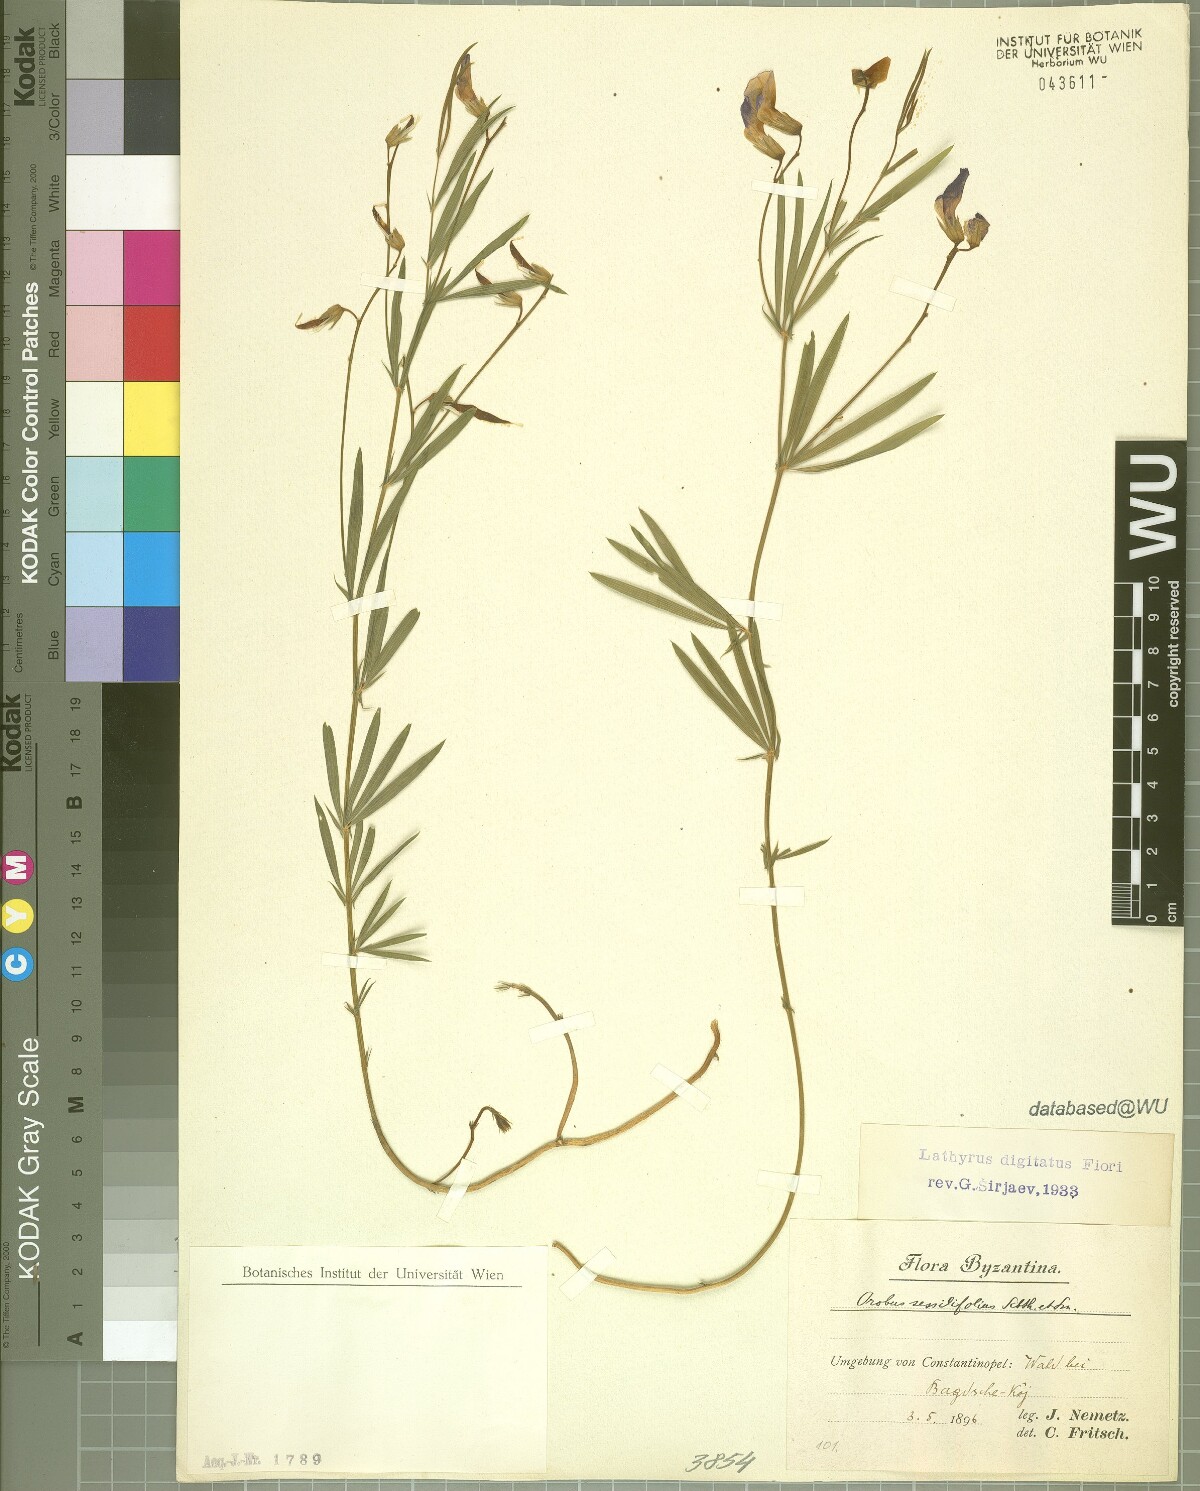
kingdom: Plantae
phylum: Tracheophyta
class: Magnoliopsida
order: Fabales
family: Fabaceae
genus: Lathyrus
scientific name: Lathyrus digitatus
